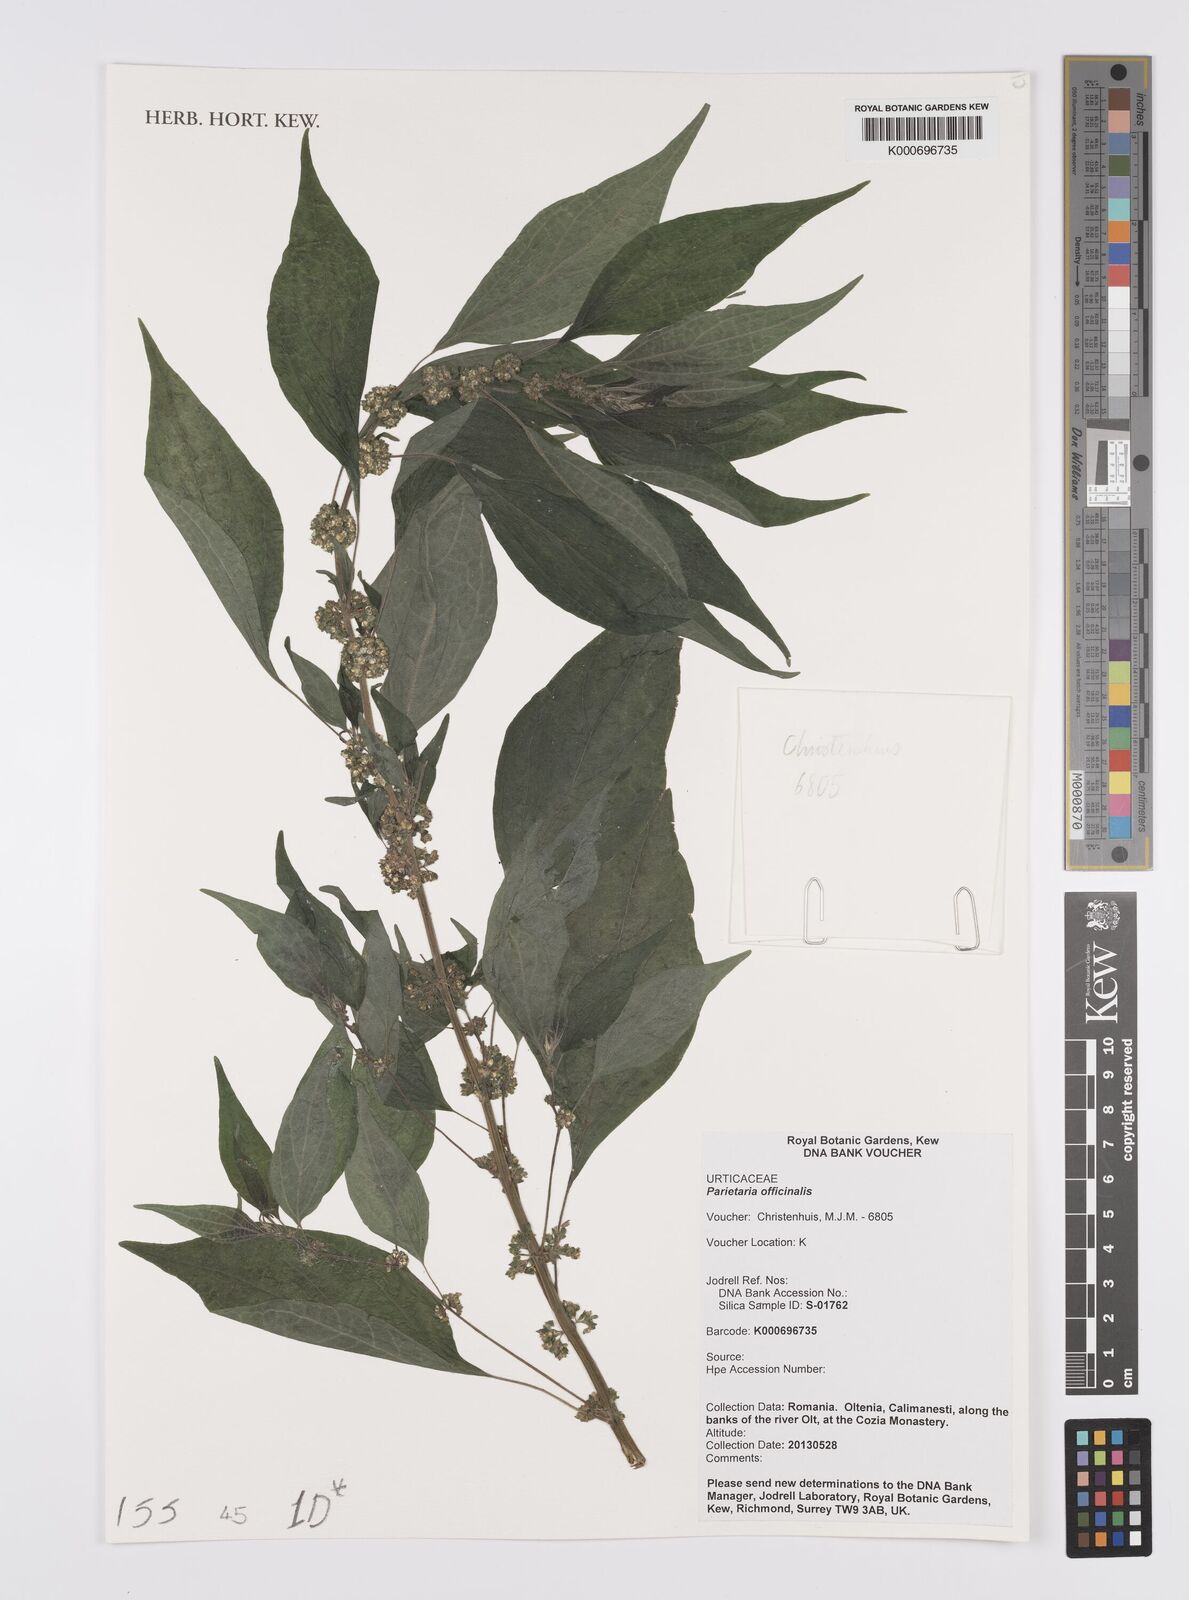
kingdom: Plantae
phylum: Tracheophyta
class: Magnoliopsida
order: Rosales
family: Urticaceae
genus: Parietaria
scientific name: Parietaria officinalis
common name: Eastern pellitory-of-the-wall
